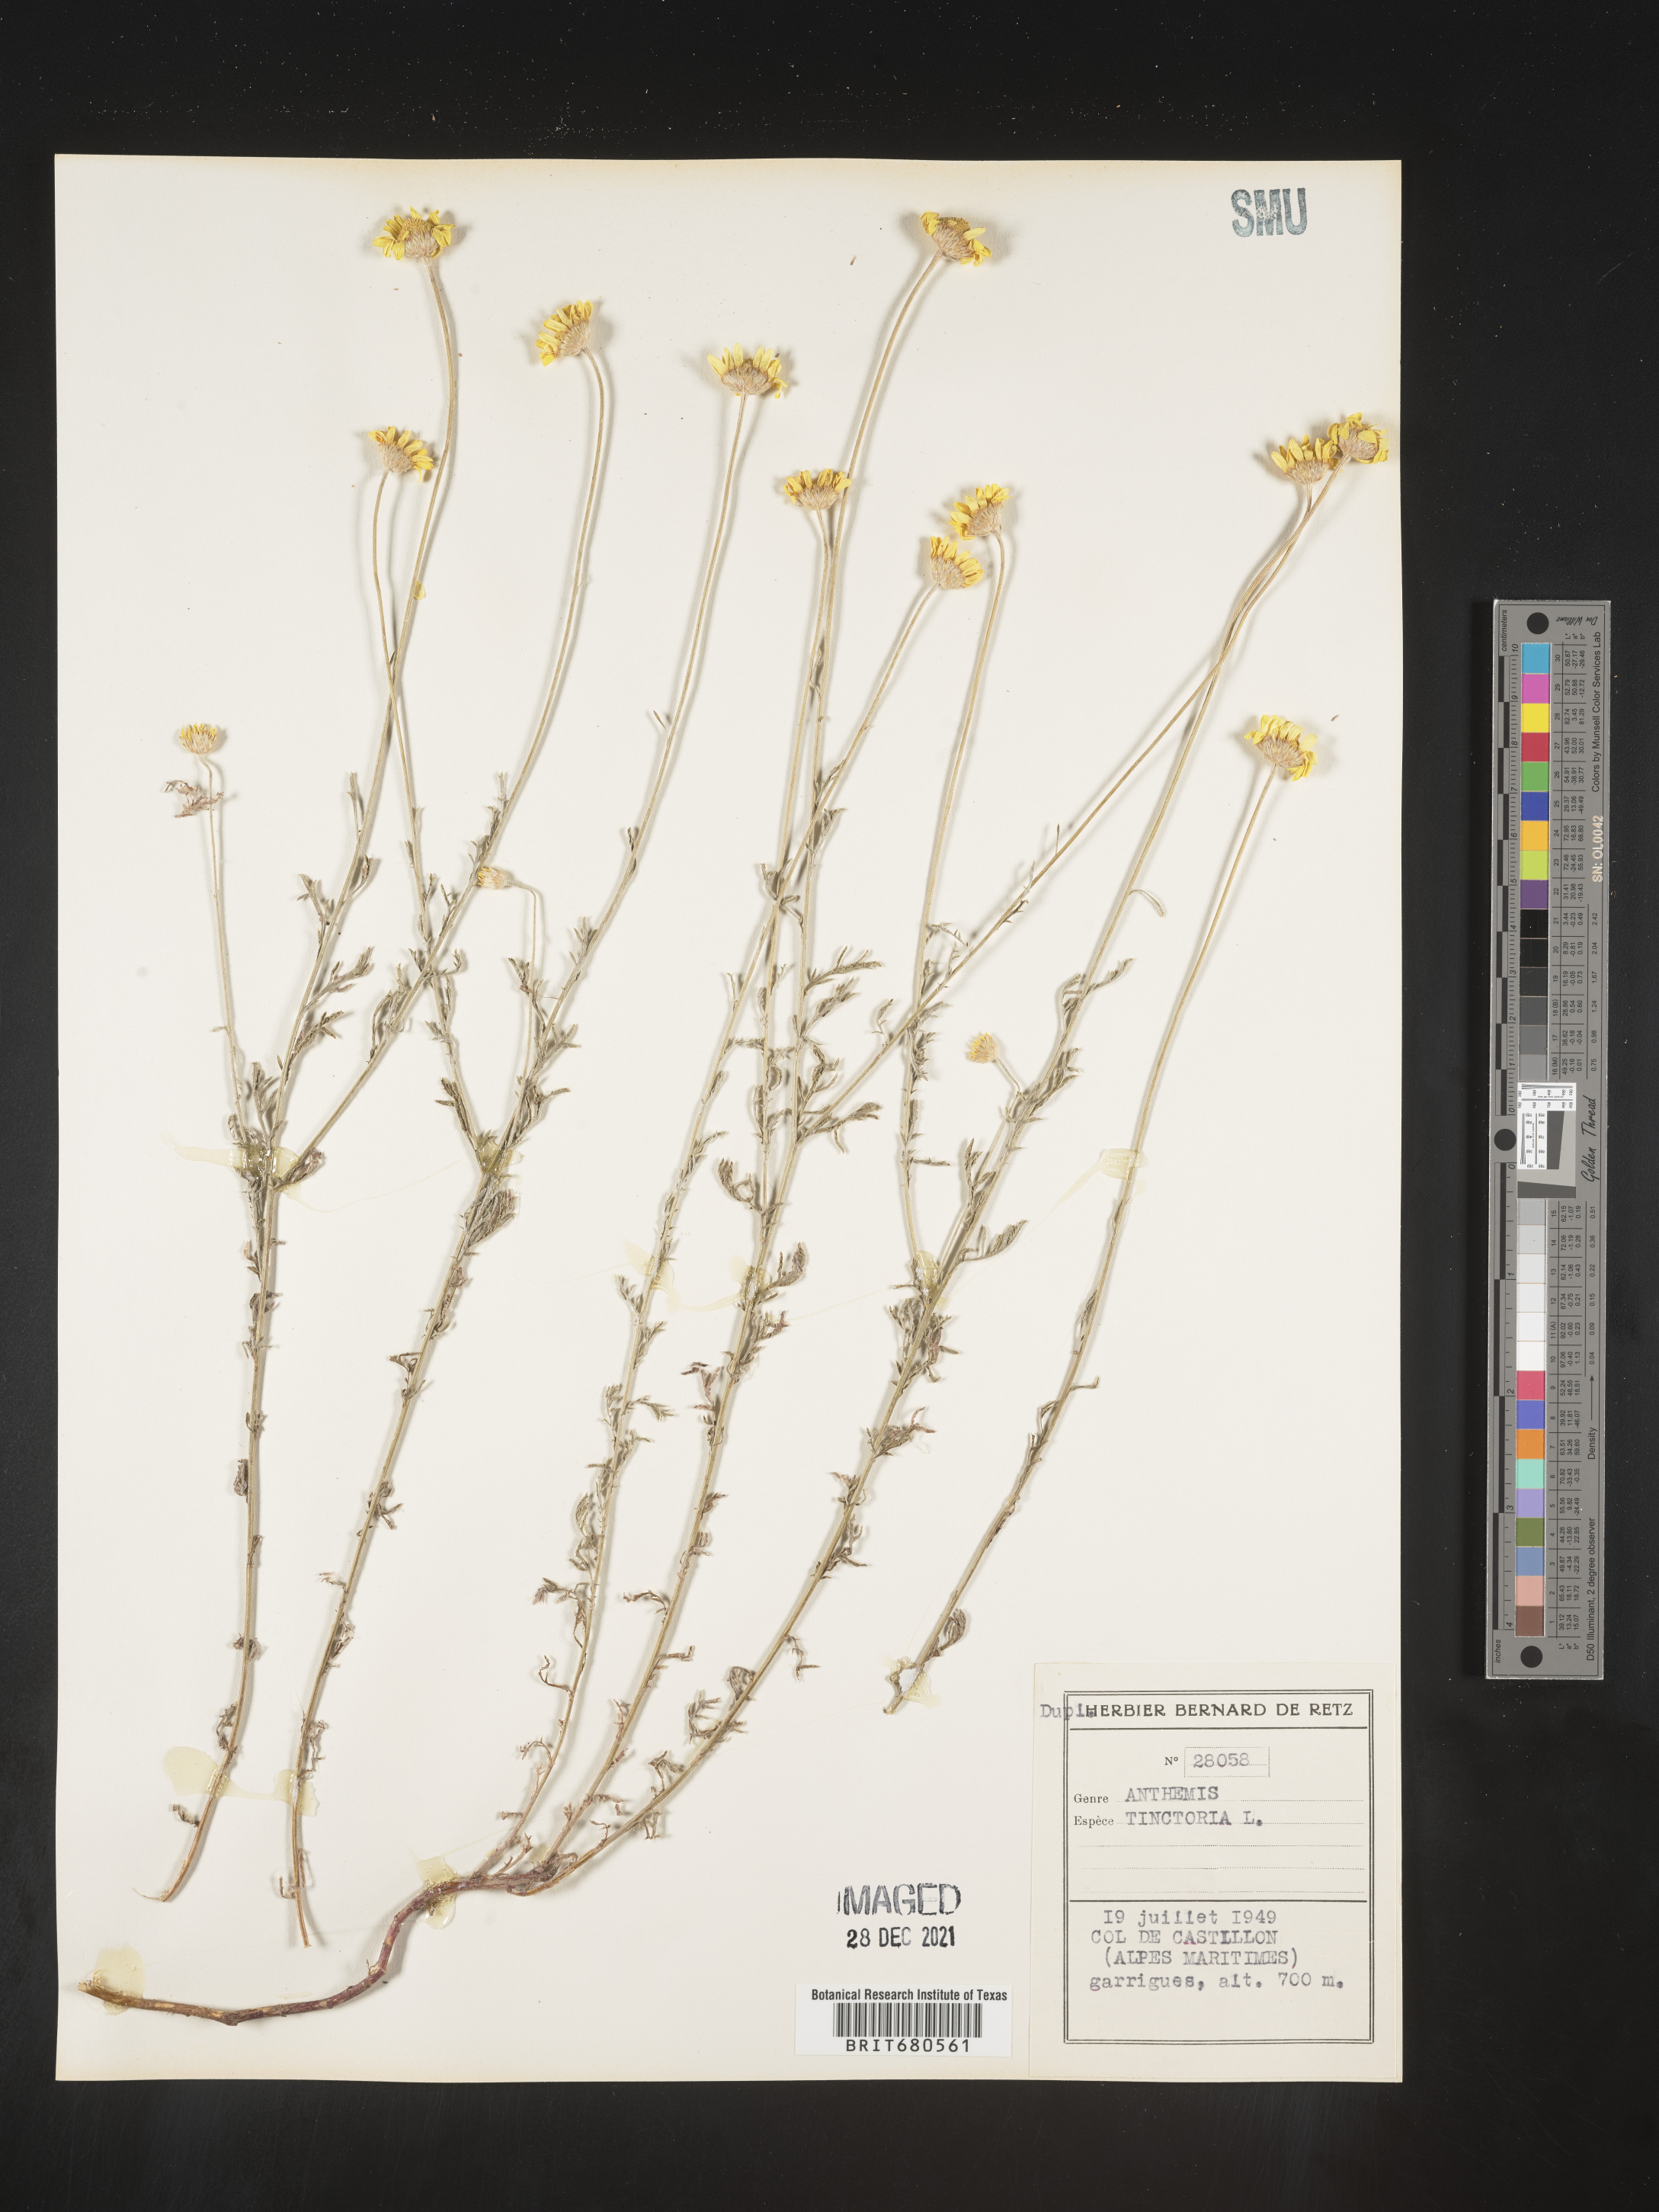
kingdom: Plantae
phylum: Tracheophyta
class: Magnoliopsida
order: Asterales
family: Asteraceae
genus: Anthemis
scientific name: Anthemis
